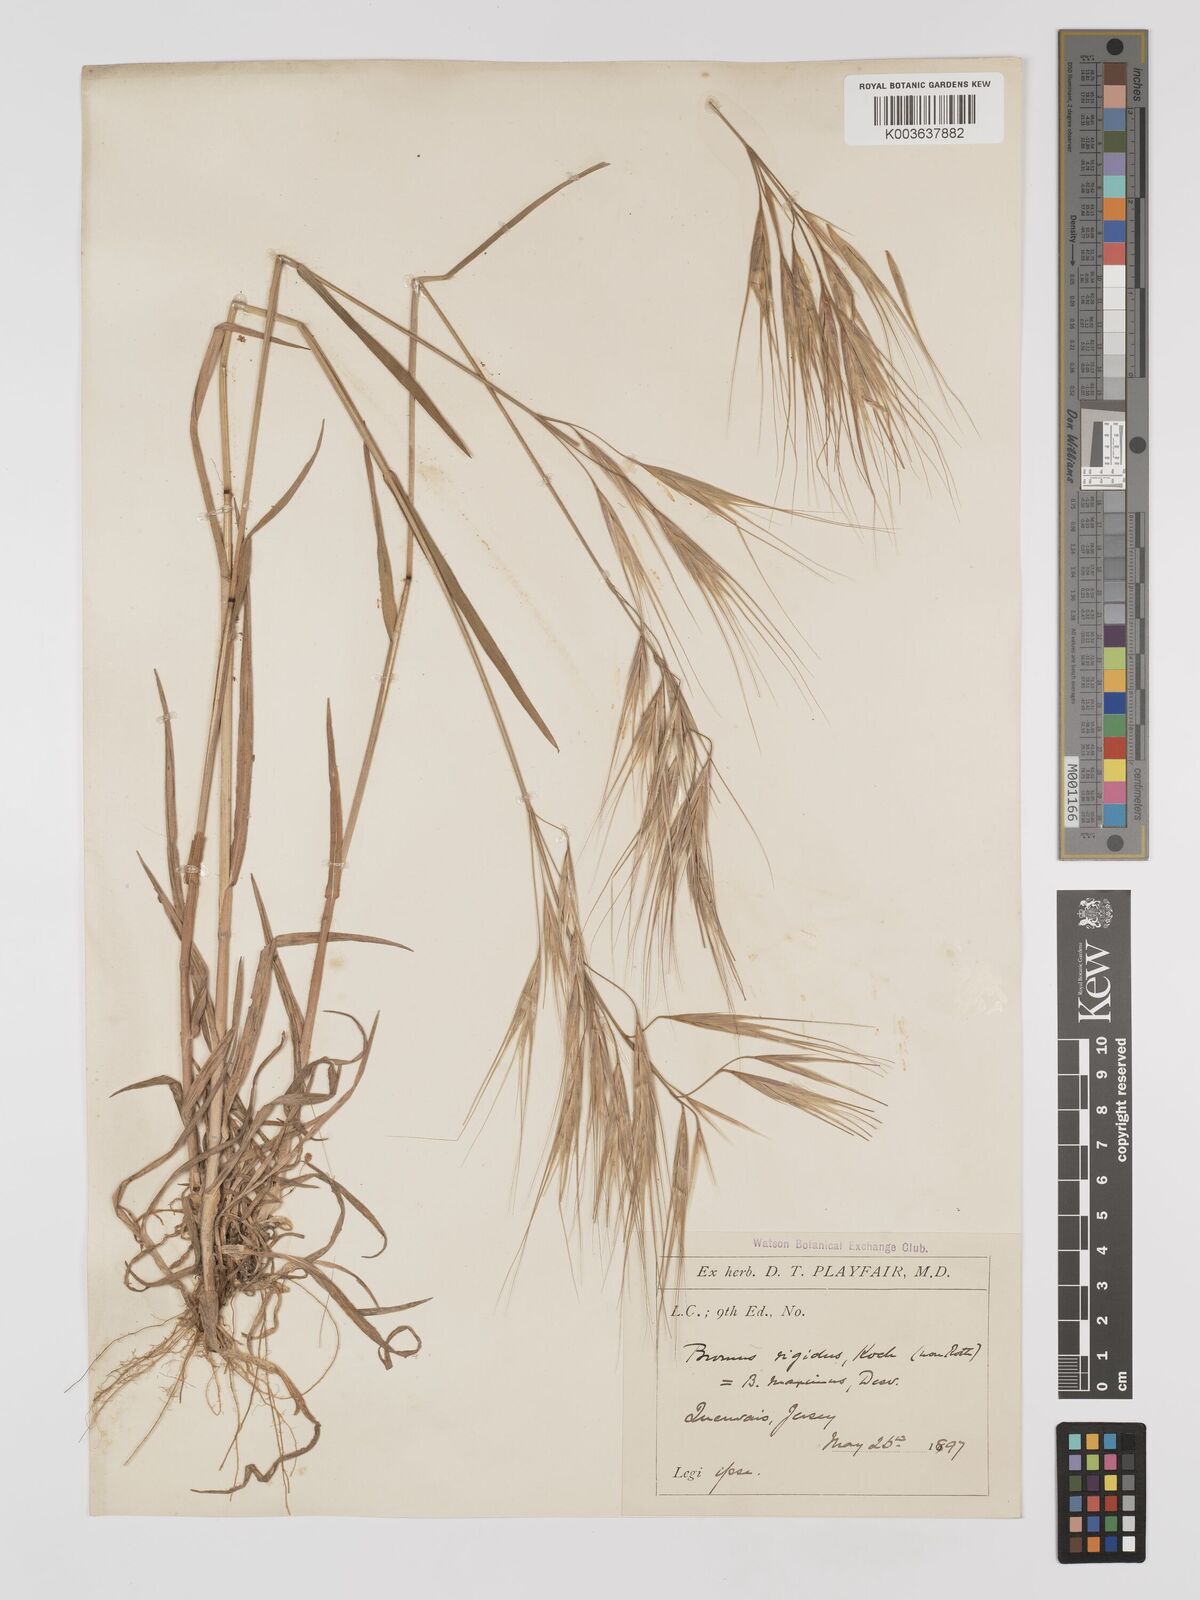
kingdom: Plantae
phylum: Tracheophyta
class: Liliopsida
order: Poales
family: Poaceae
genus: Bromus
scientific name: Bromus
